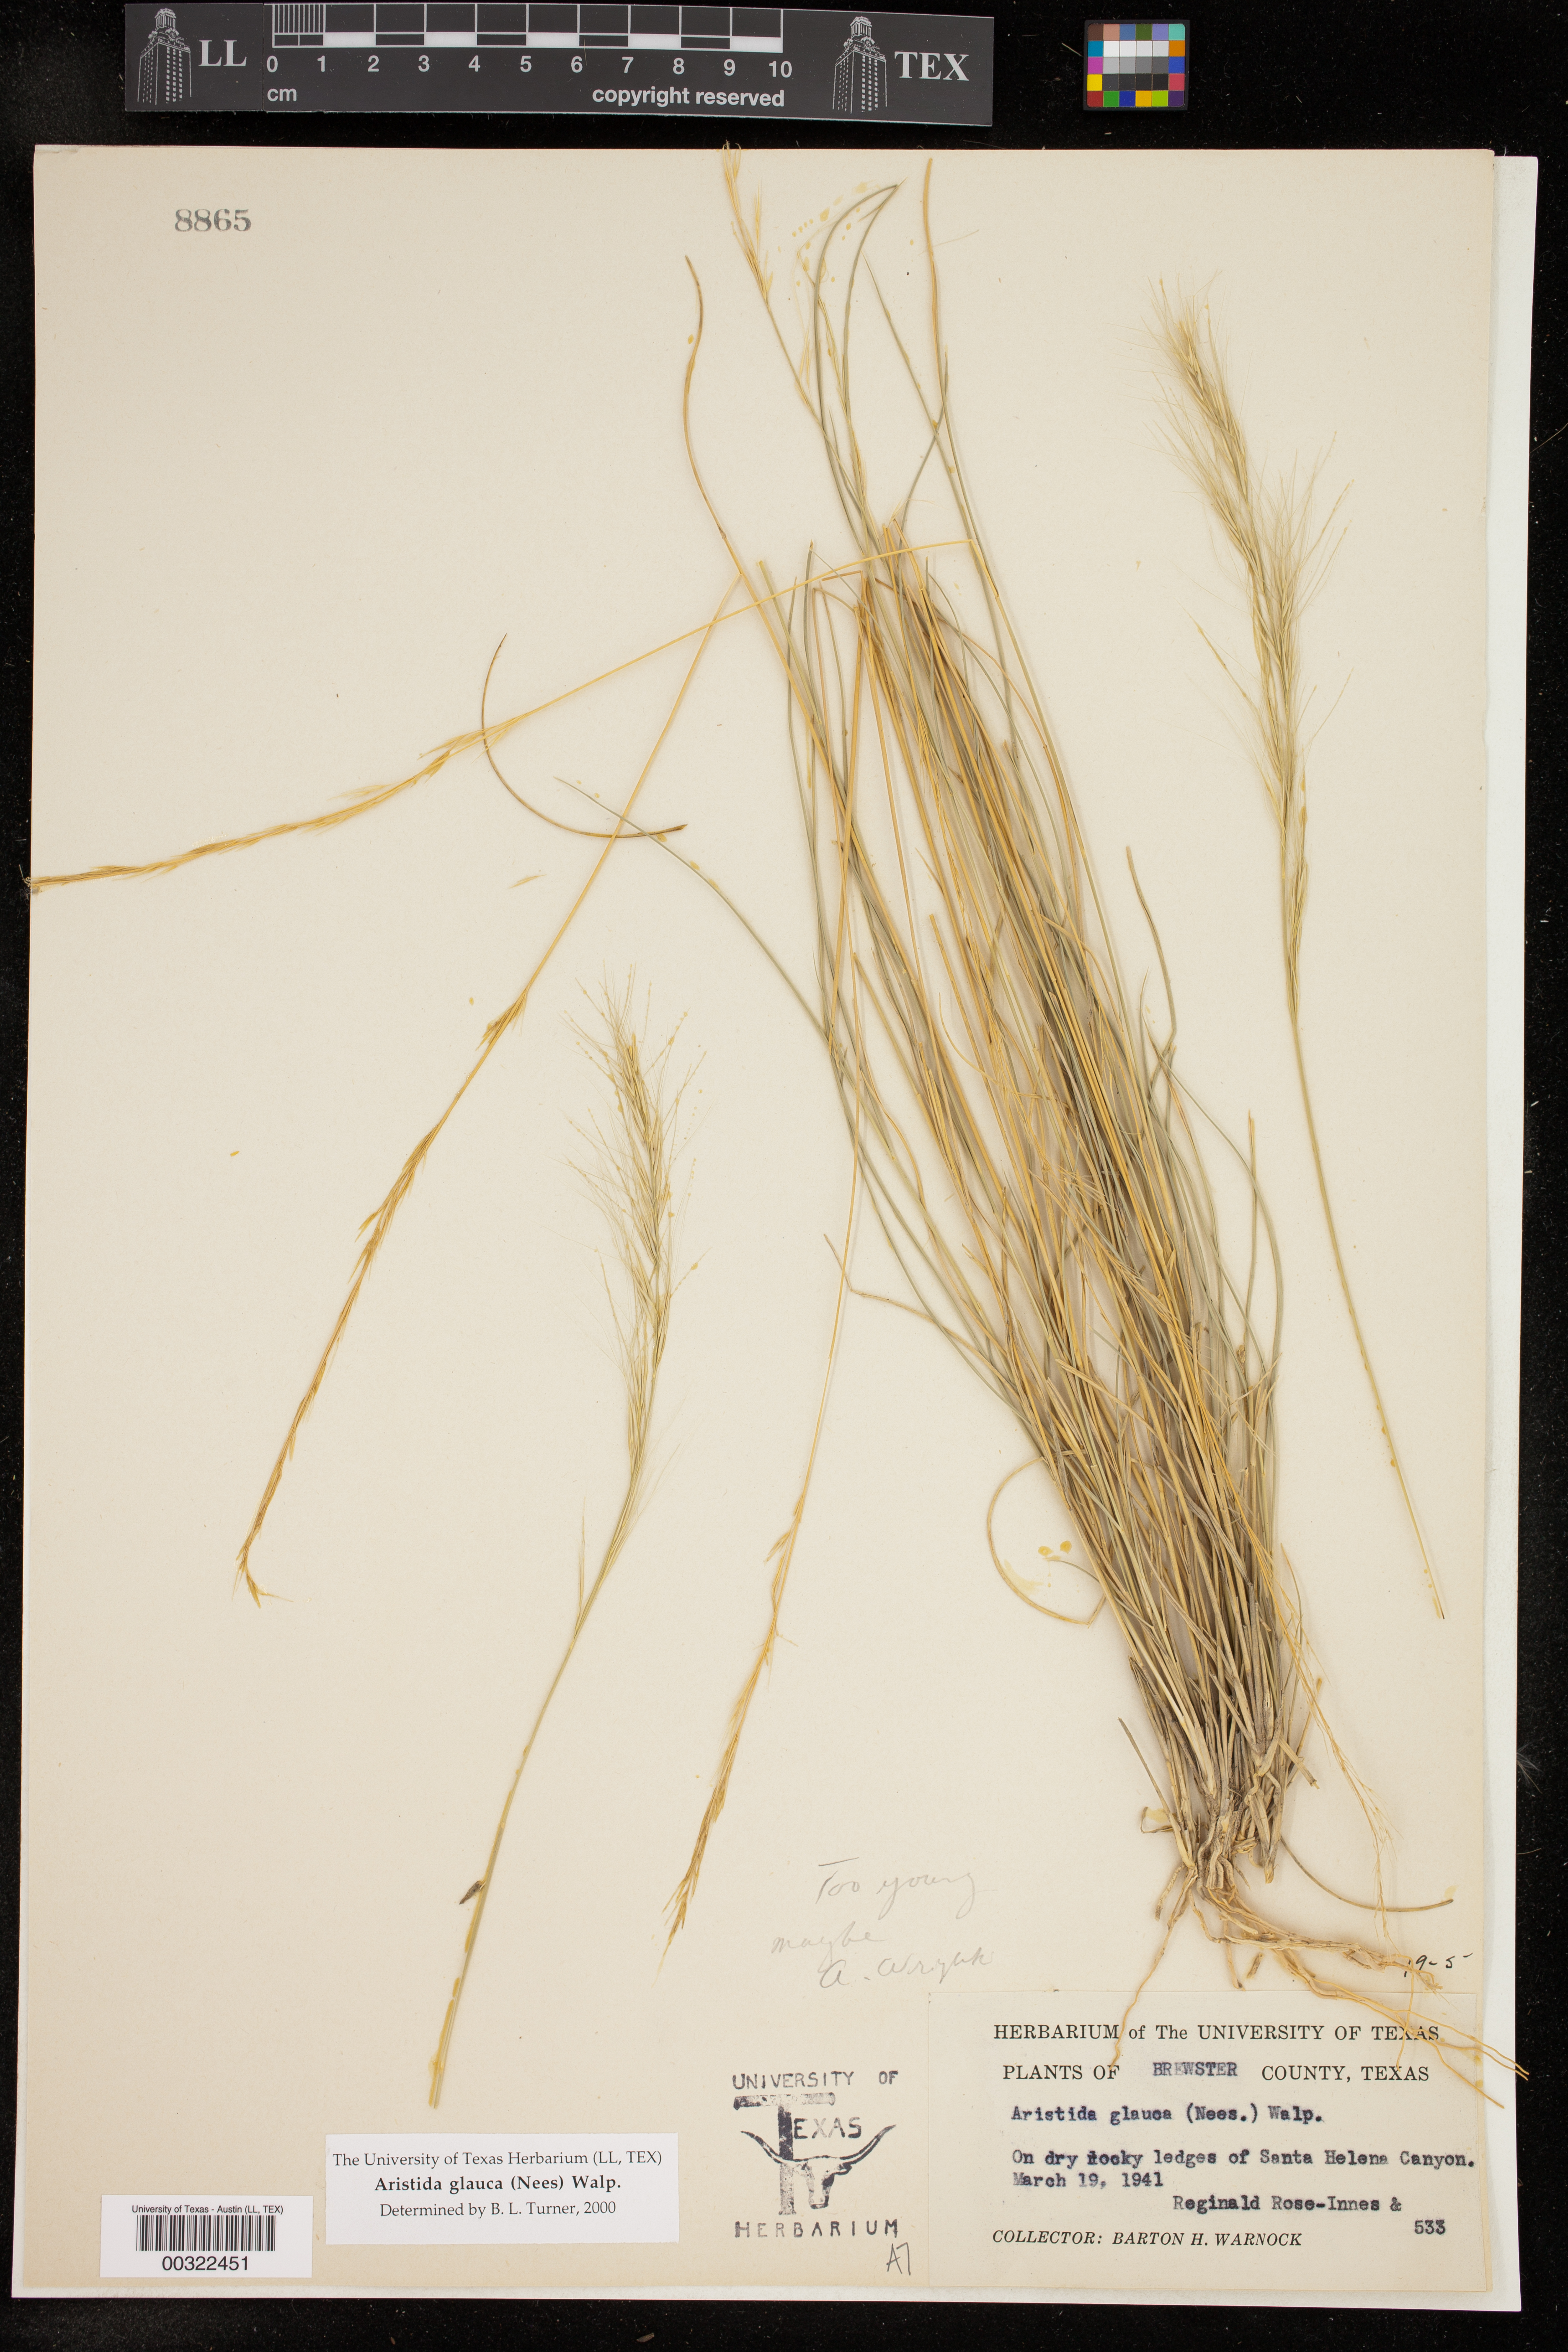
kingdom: Plantae
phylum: Tracheophyta
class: Liliopsida
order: Poales
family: Poaceae
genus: Aristida
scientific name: Aristida glauca
